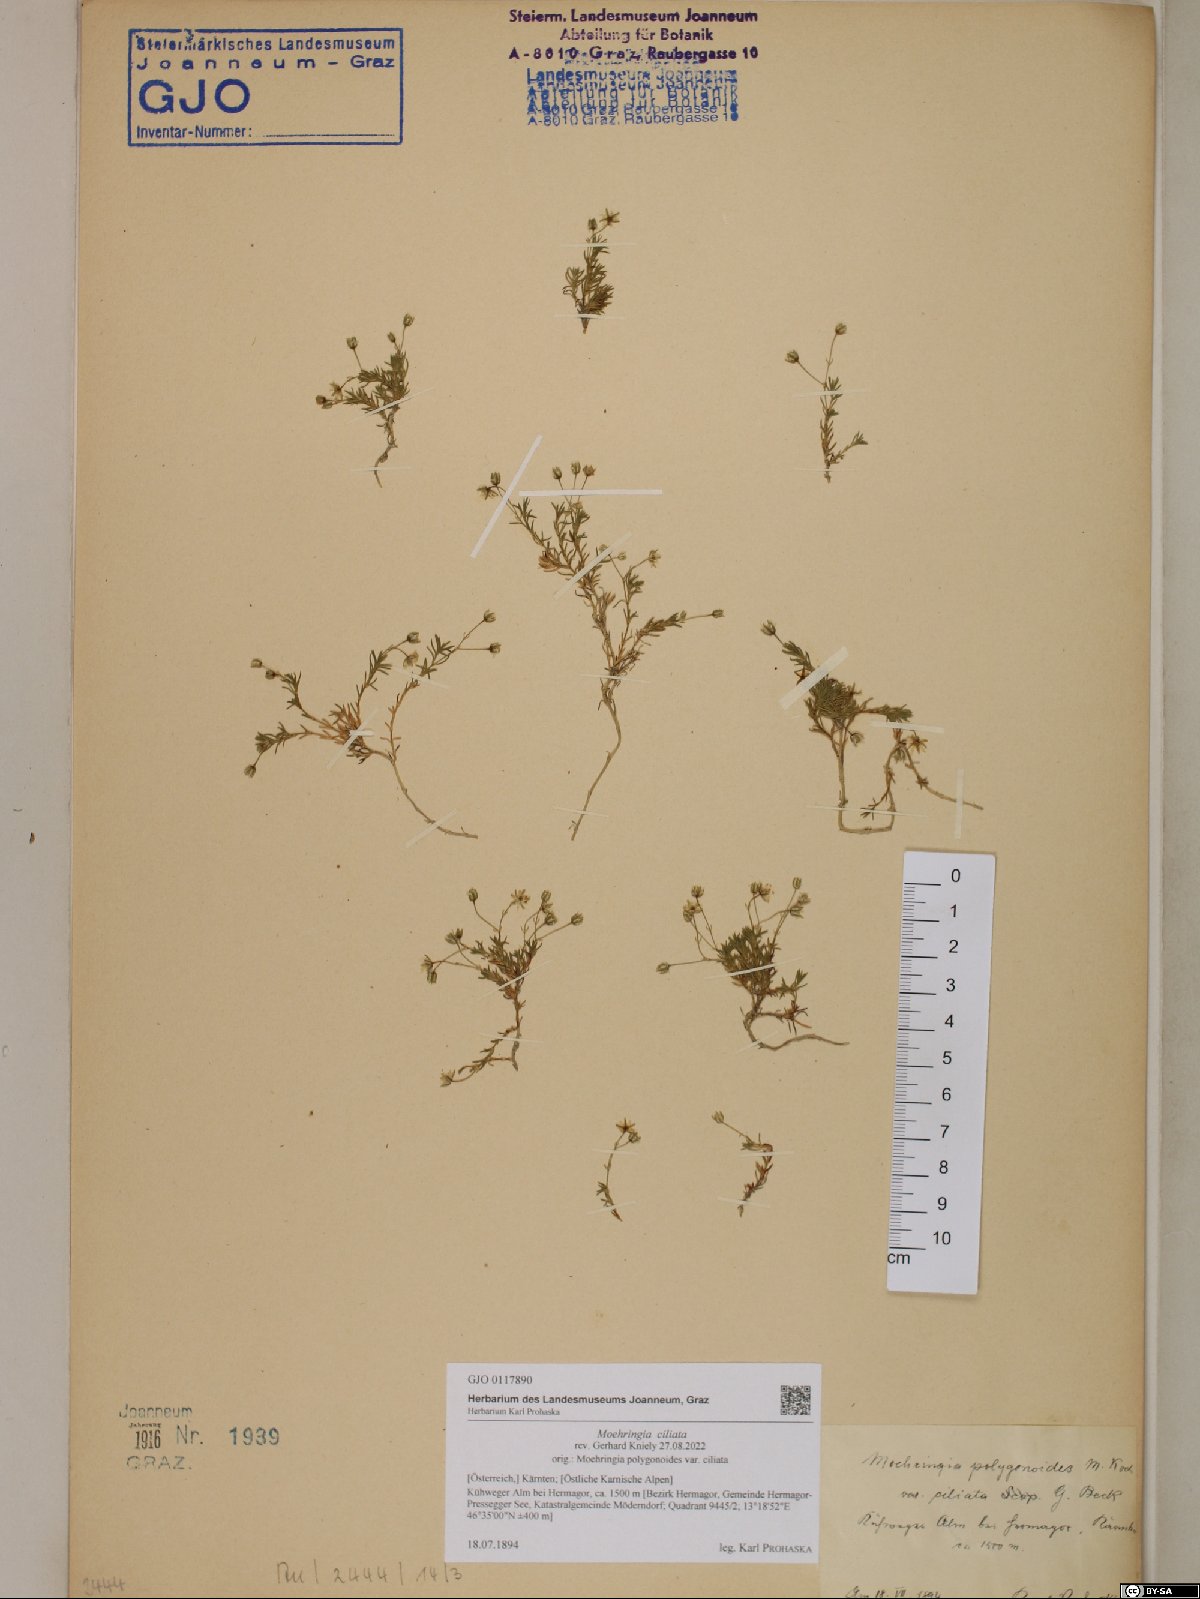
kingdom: Plantae
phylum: Tracheophyta
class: Magnoliopsida
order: Caryophyllales
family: Caryophyllaceae
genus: Moehringia
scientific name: Moehringia ciliata
